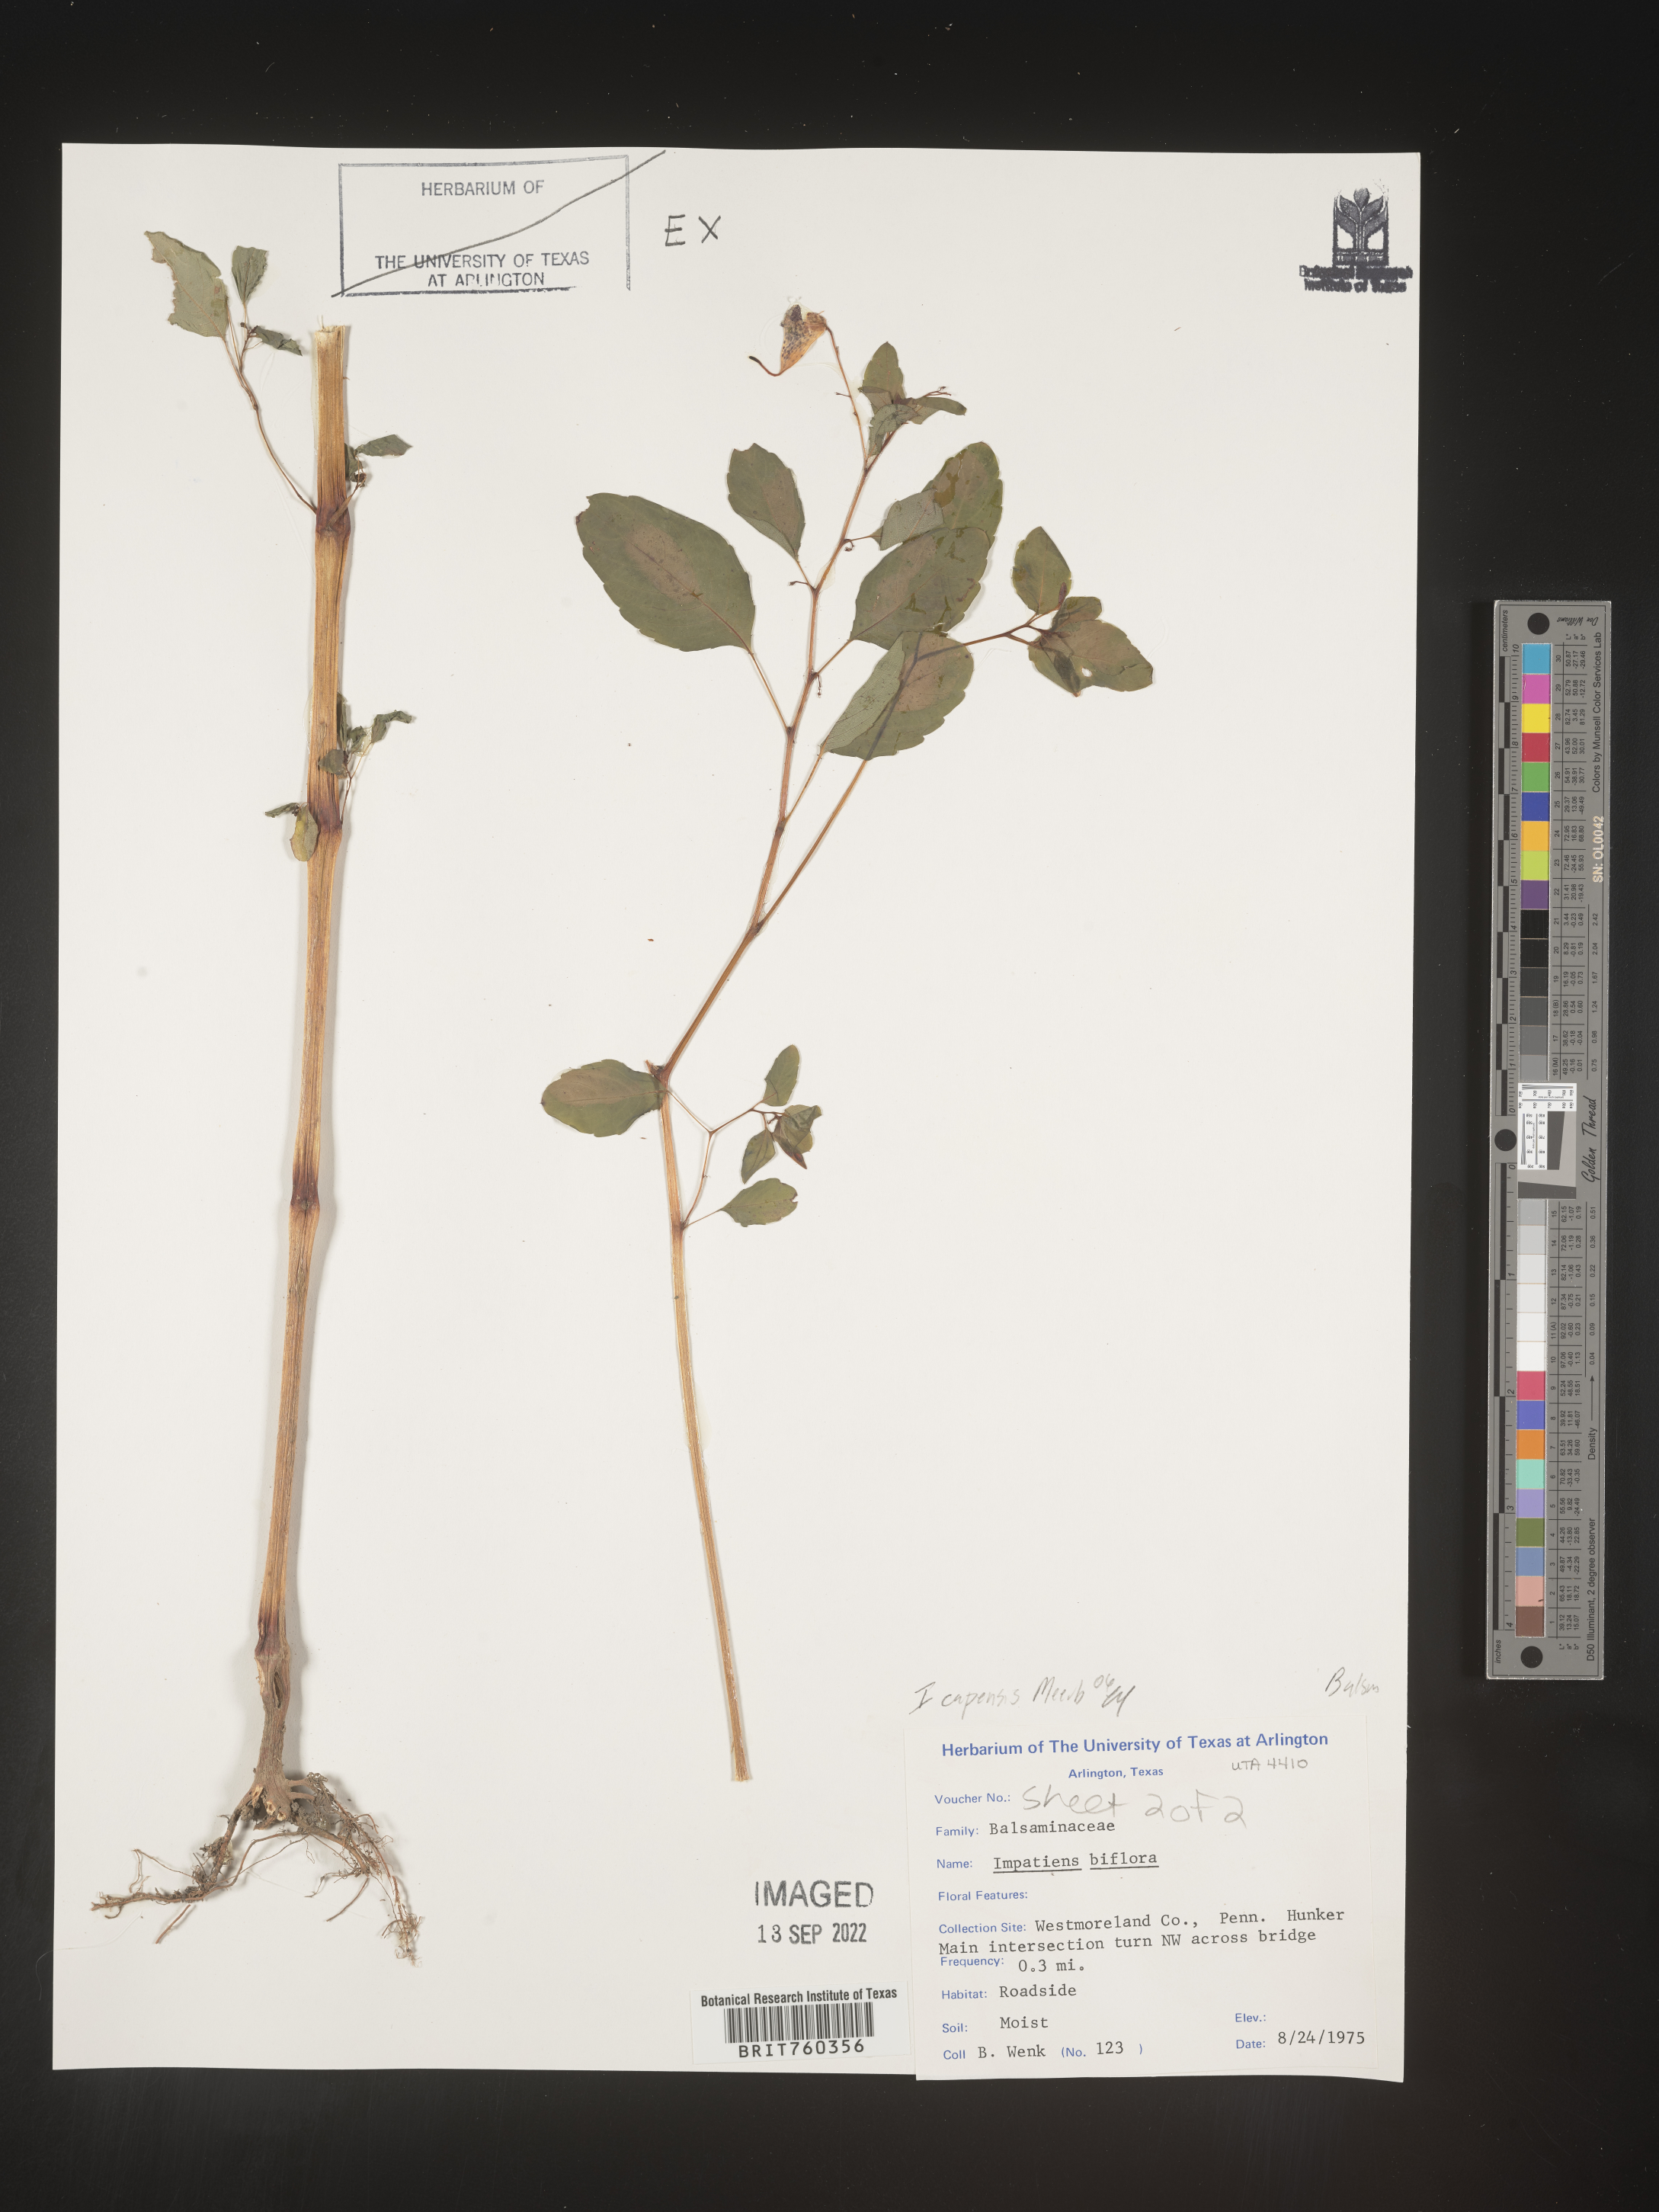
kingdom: Plantae
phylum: Tracheophyta
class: Magnoliopsida
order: Ericales
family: Balsaminaceae
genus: Impatiens
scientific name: Impatiens
